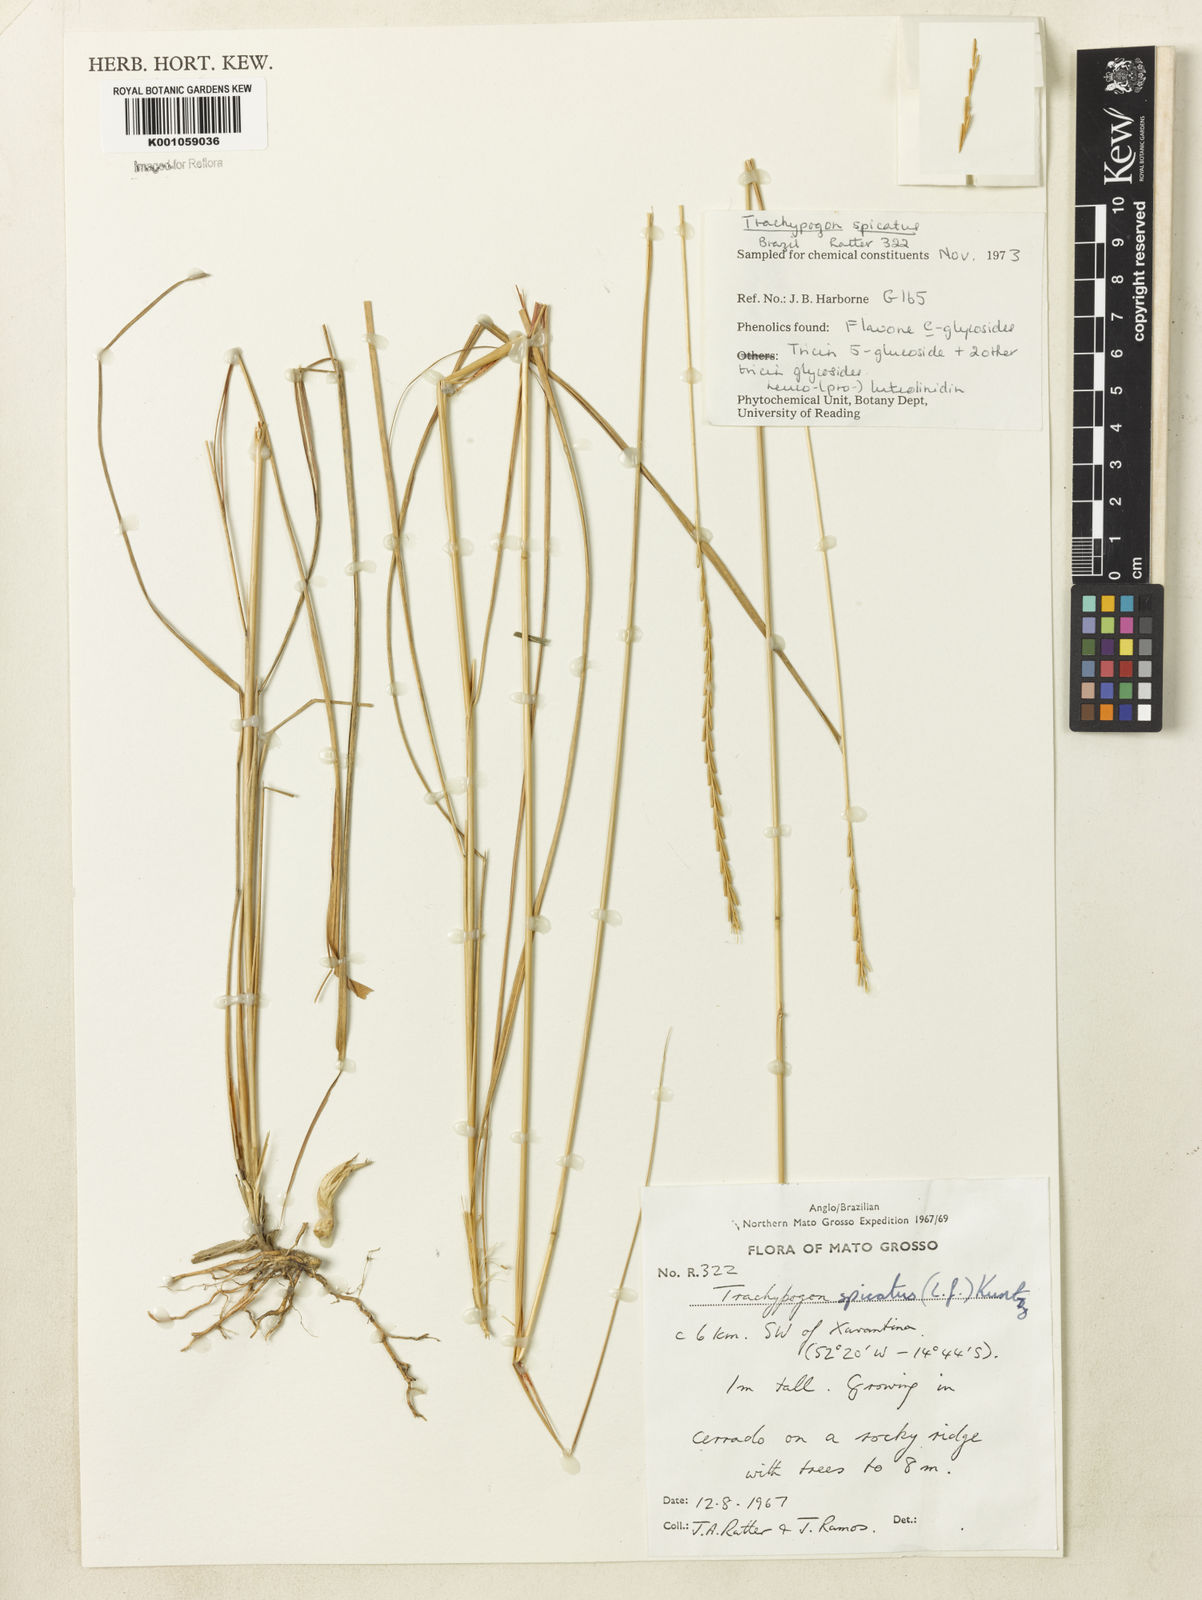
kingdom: Plantae
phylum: Tracheophyta
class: Liliopsida
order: Poales
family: Poaceae
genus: Trachypogon
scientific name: Trachypogon spicatus
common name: Crinkle-awn
